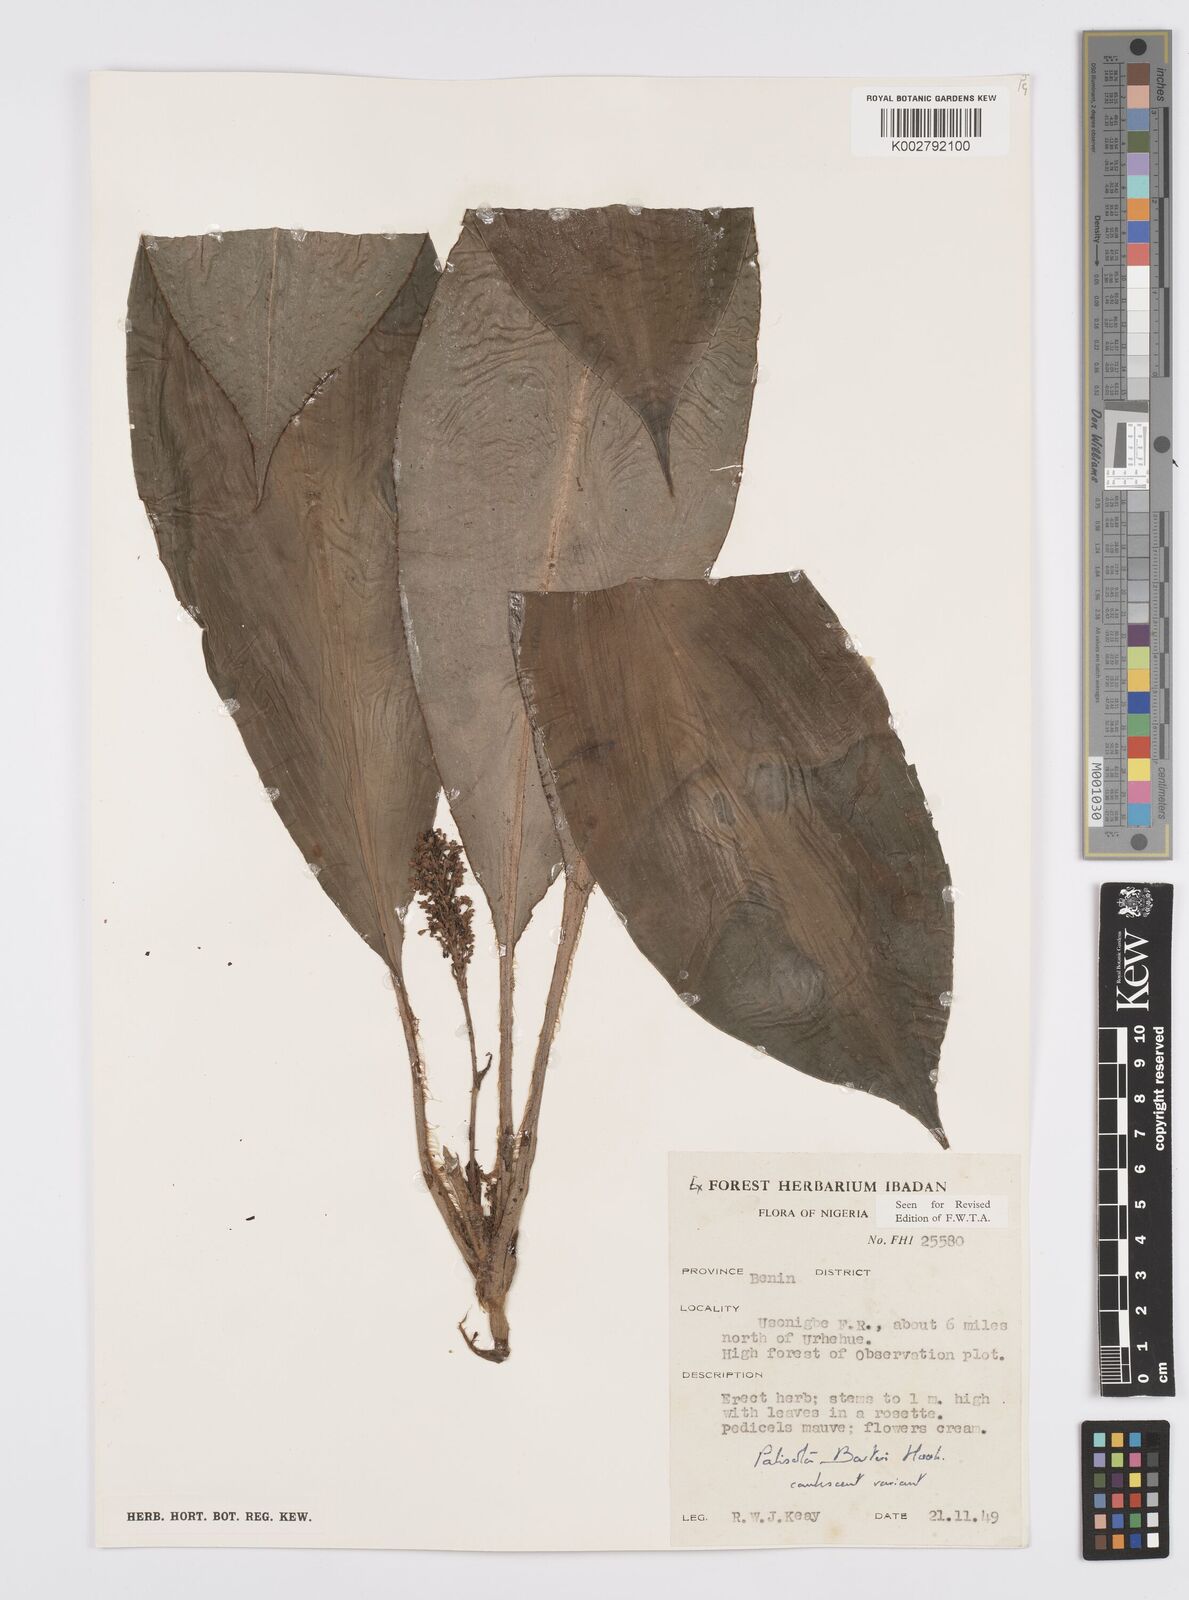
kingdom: Plantae
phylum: Tracheophyta
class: Liliopsida
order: Commelinales
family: Commelinaceae
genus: Palisota
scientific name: Palisota barteri
